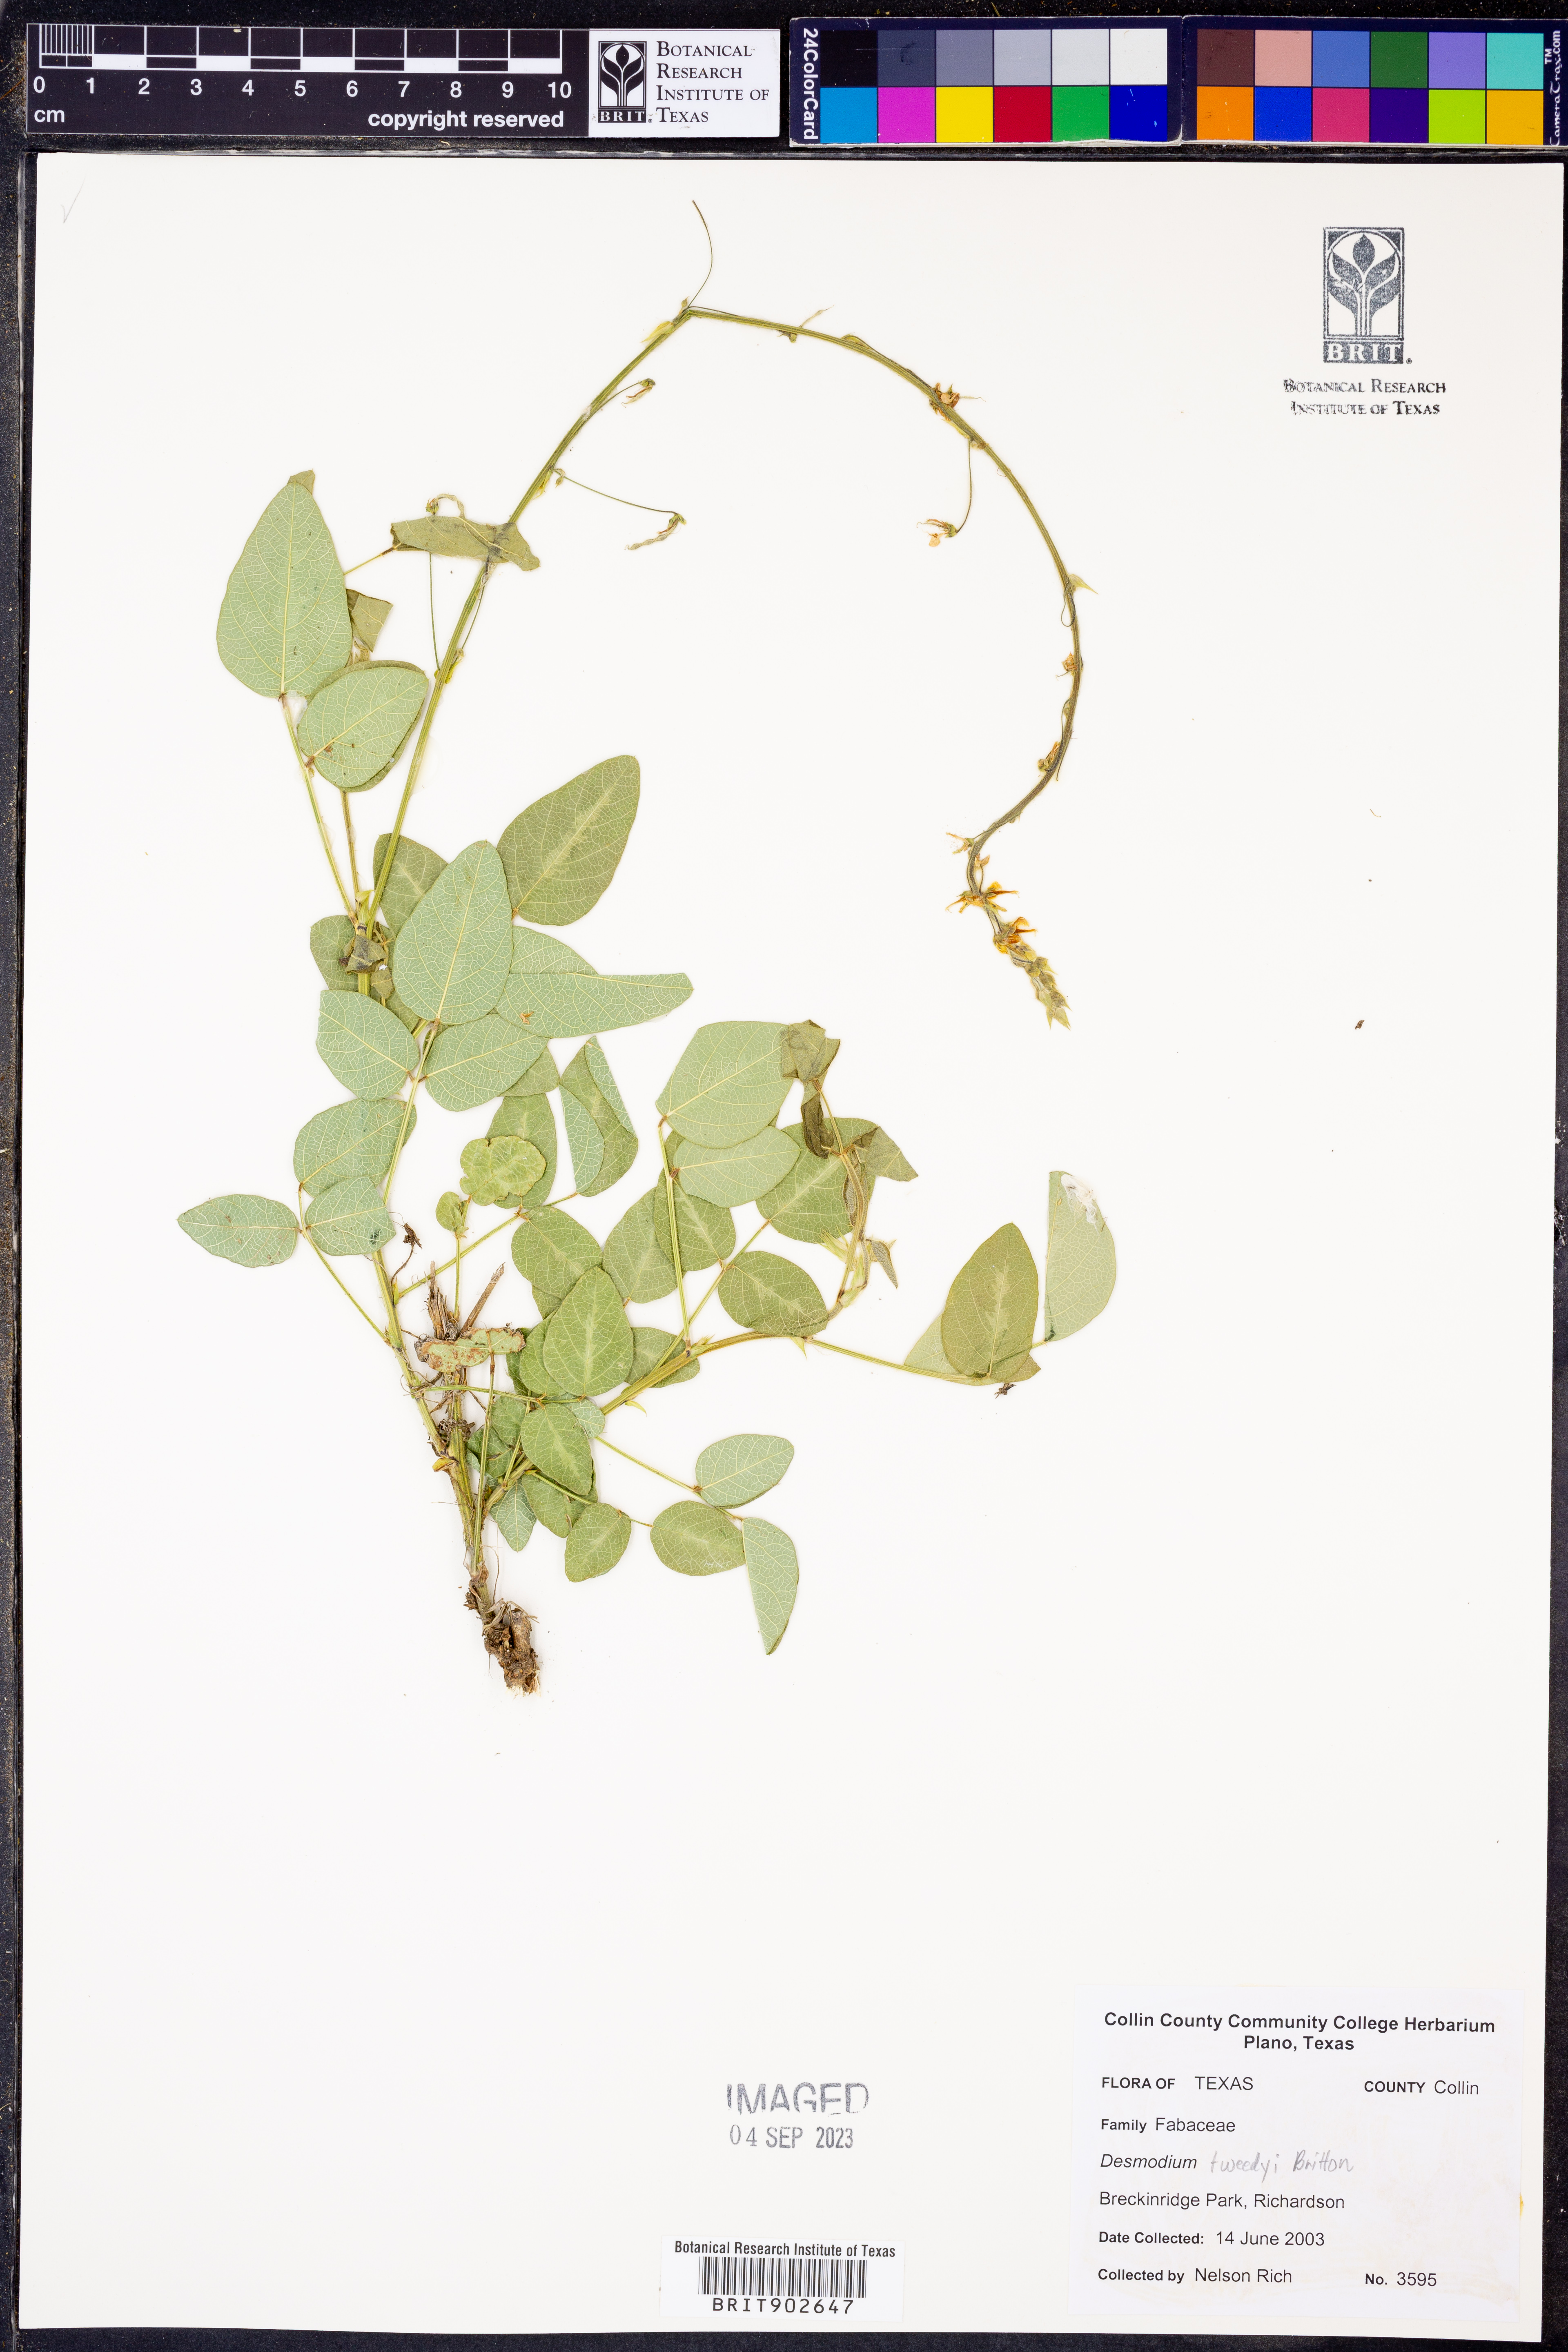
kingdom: Plantae
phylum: Tracheophyta
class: Magnoliopsida
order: Fabales
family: Fabaceae
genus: Desmodium
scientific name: Desmodium tweedyi
